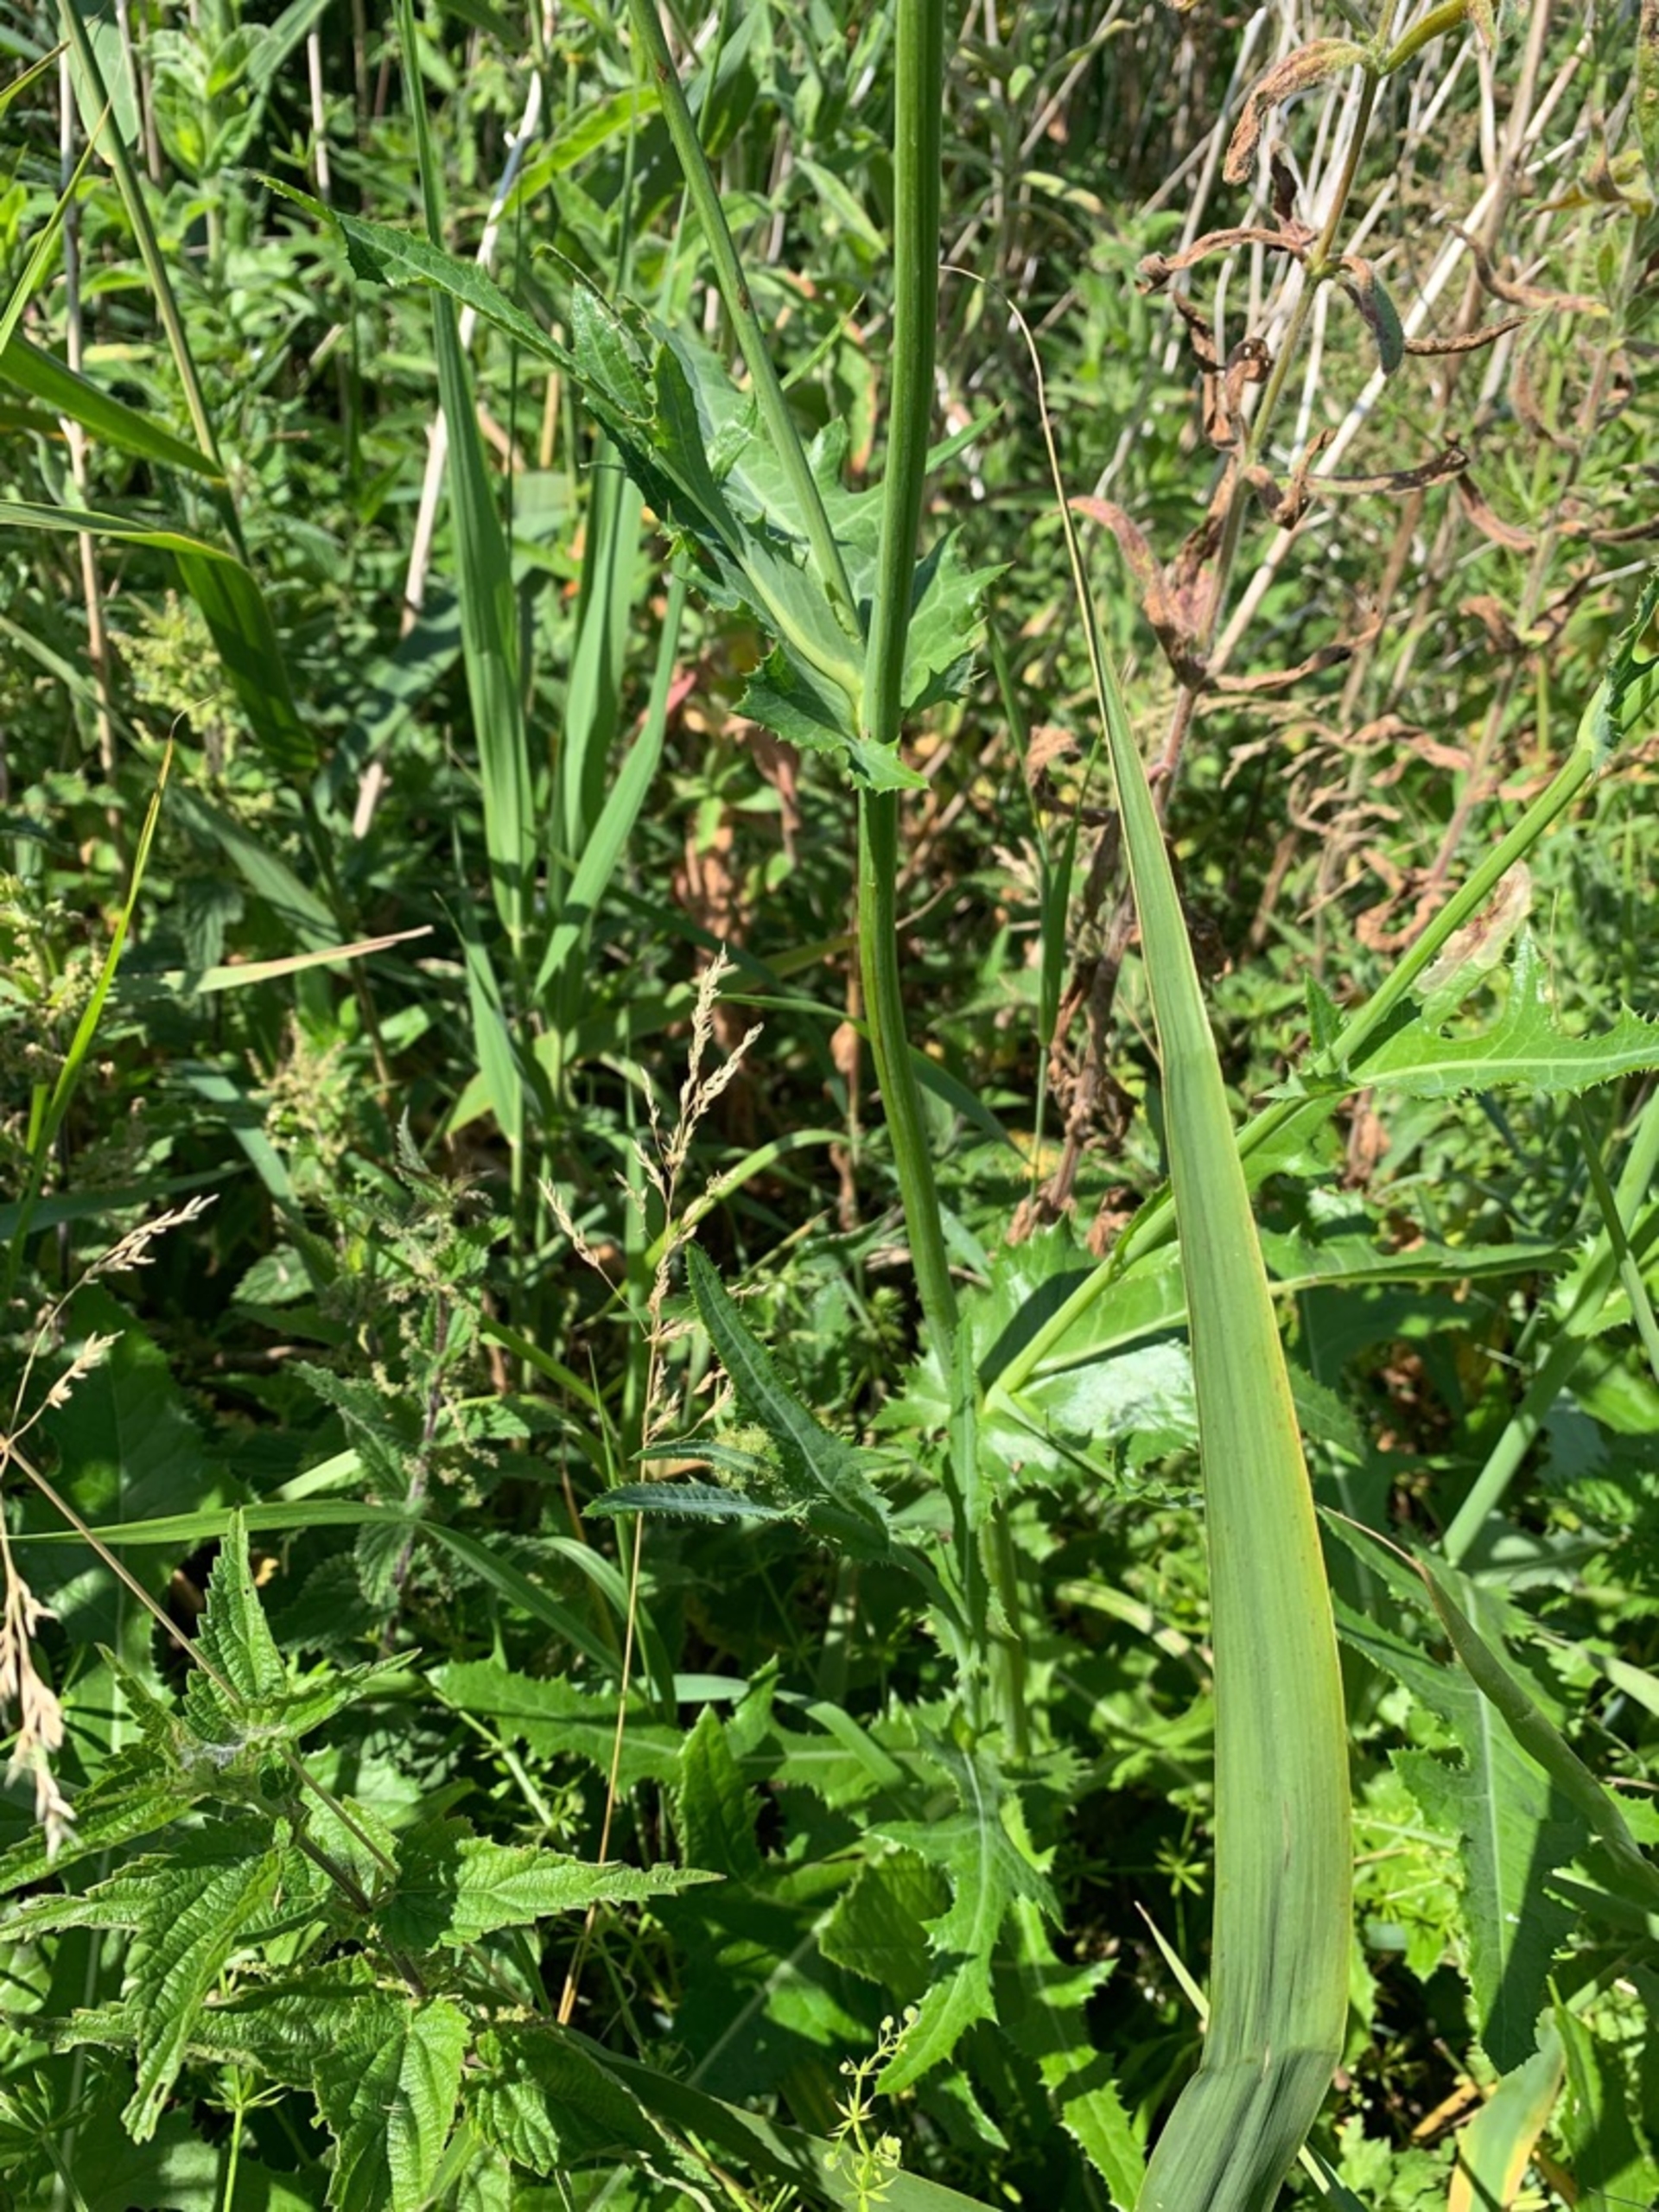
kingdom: Plantae
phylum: Tracheophyta
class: Magnoliopsida
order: Asterales
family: Asteraceae
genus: Sonchus
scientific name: Sonchus arvensis
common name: Ager-svinemælk
